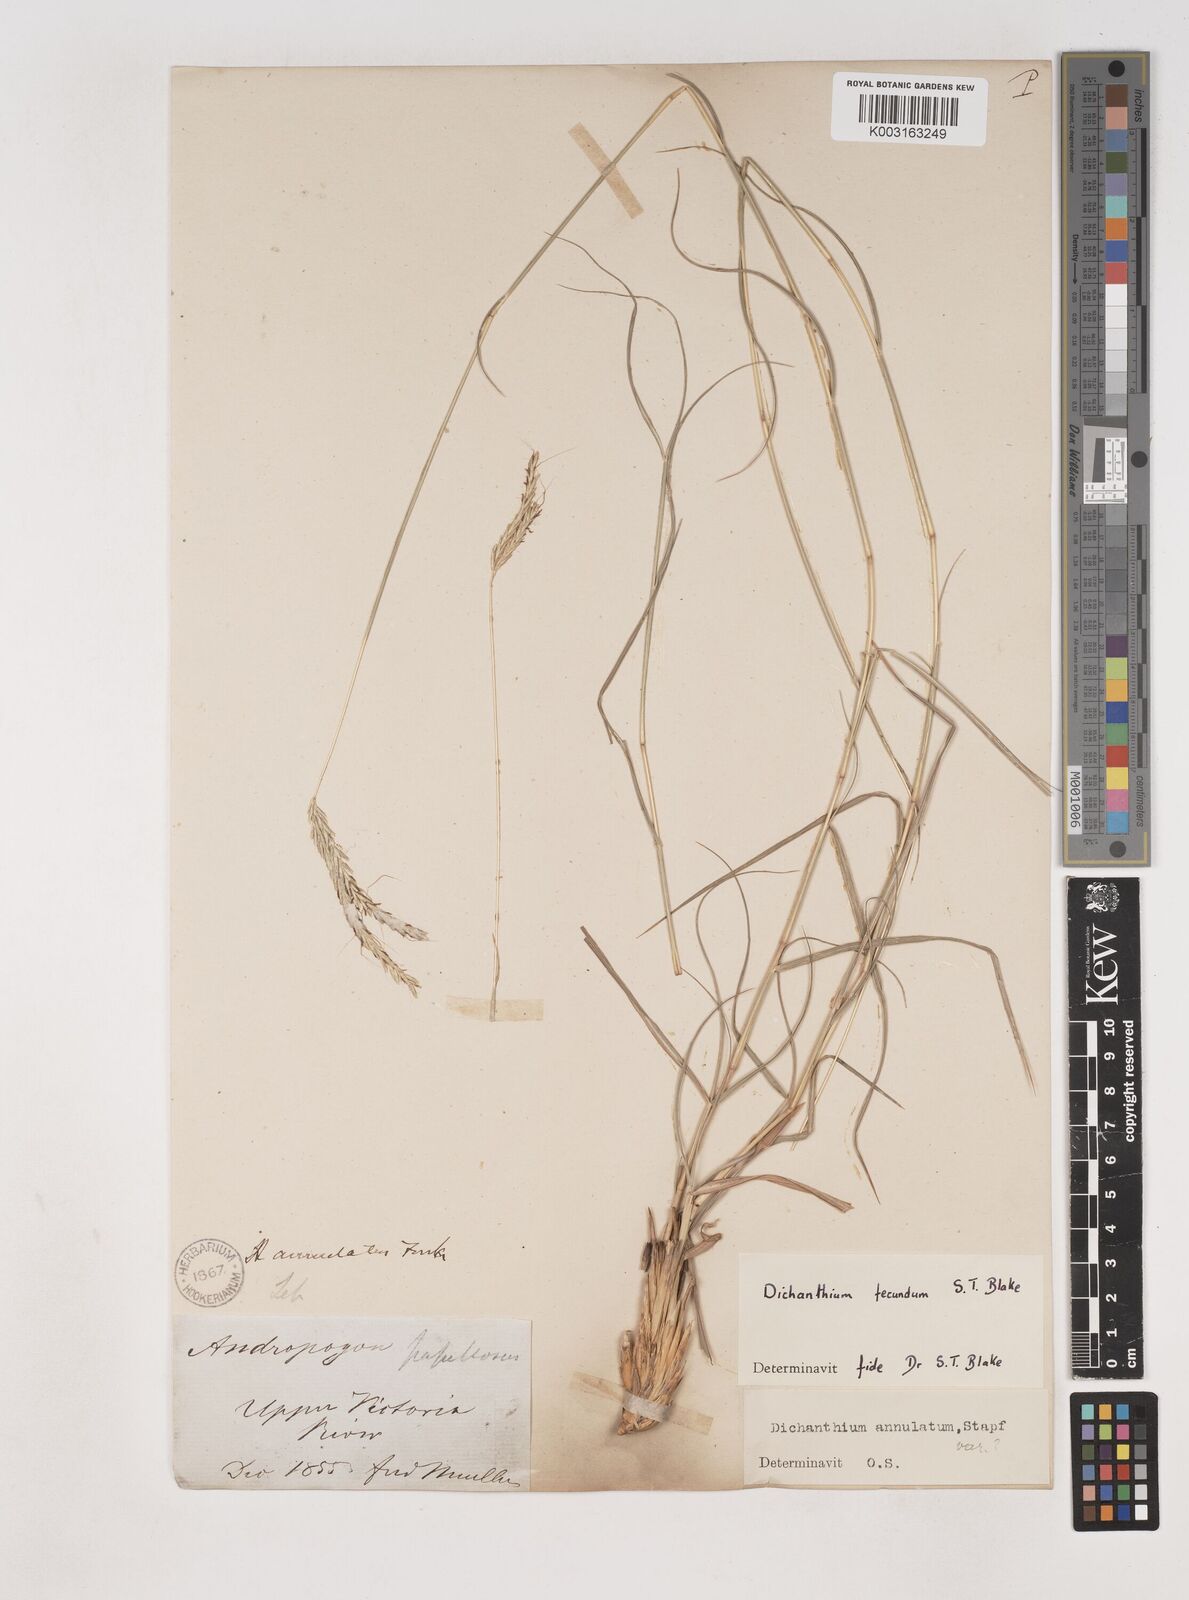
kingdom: Plantae
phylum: Tracheophyta
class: Liliopsida
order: Poales
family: Poaceae
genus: Dichanthium
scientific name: Dichanthium fecundum
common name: Bundle-bundle
